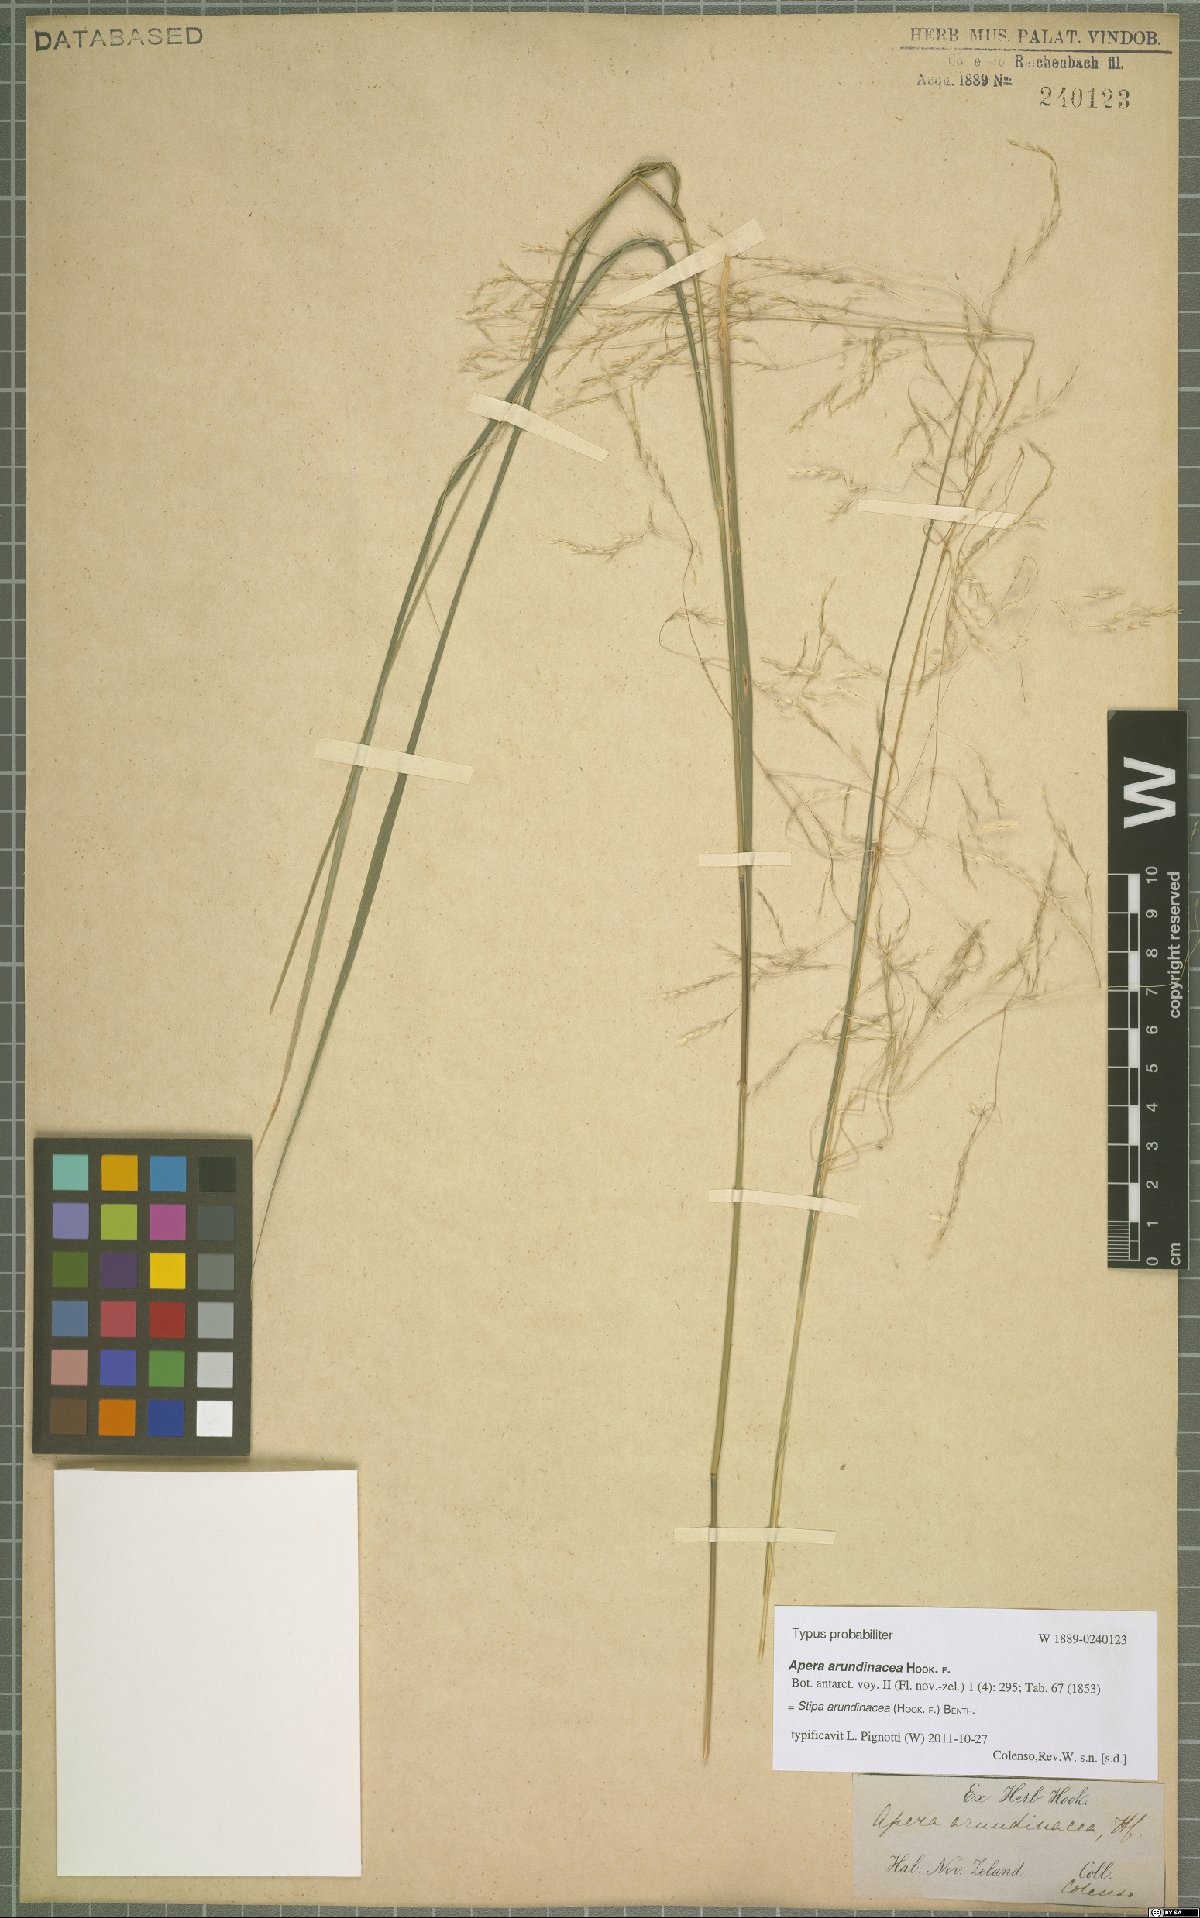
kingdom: Plantae
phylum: Tracheophyta
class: Liliopsida
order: Poales
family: Poaceae
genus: Anemanthele
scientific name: Anemanthele lessoniana
